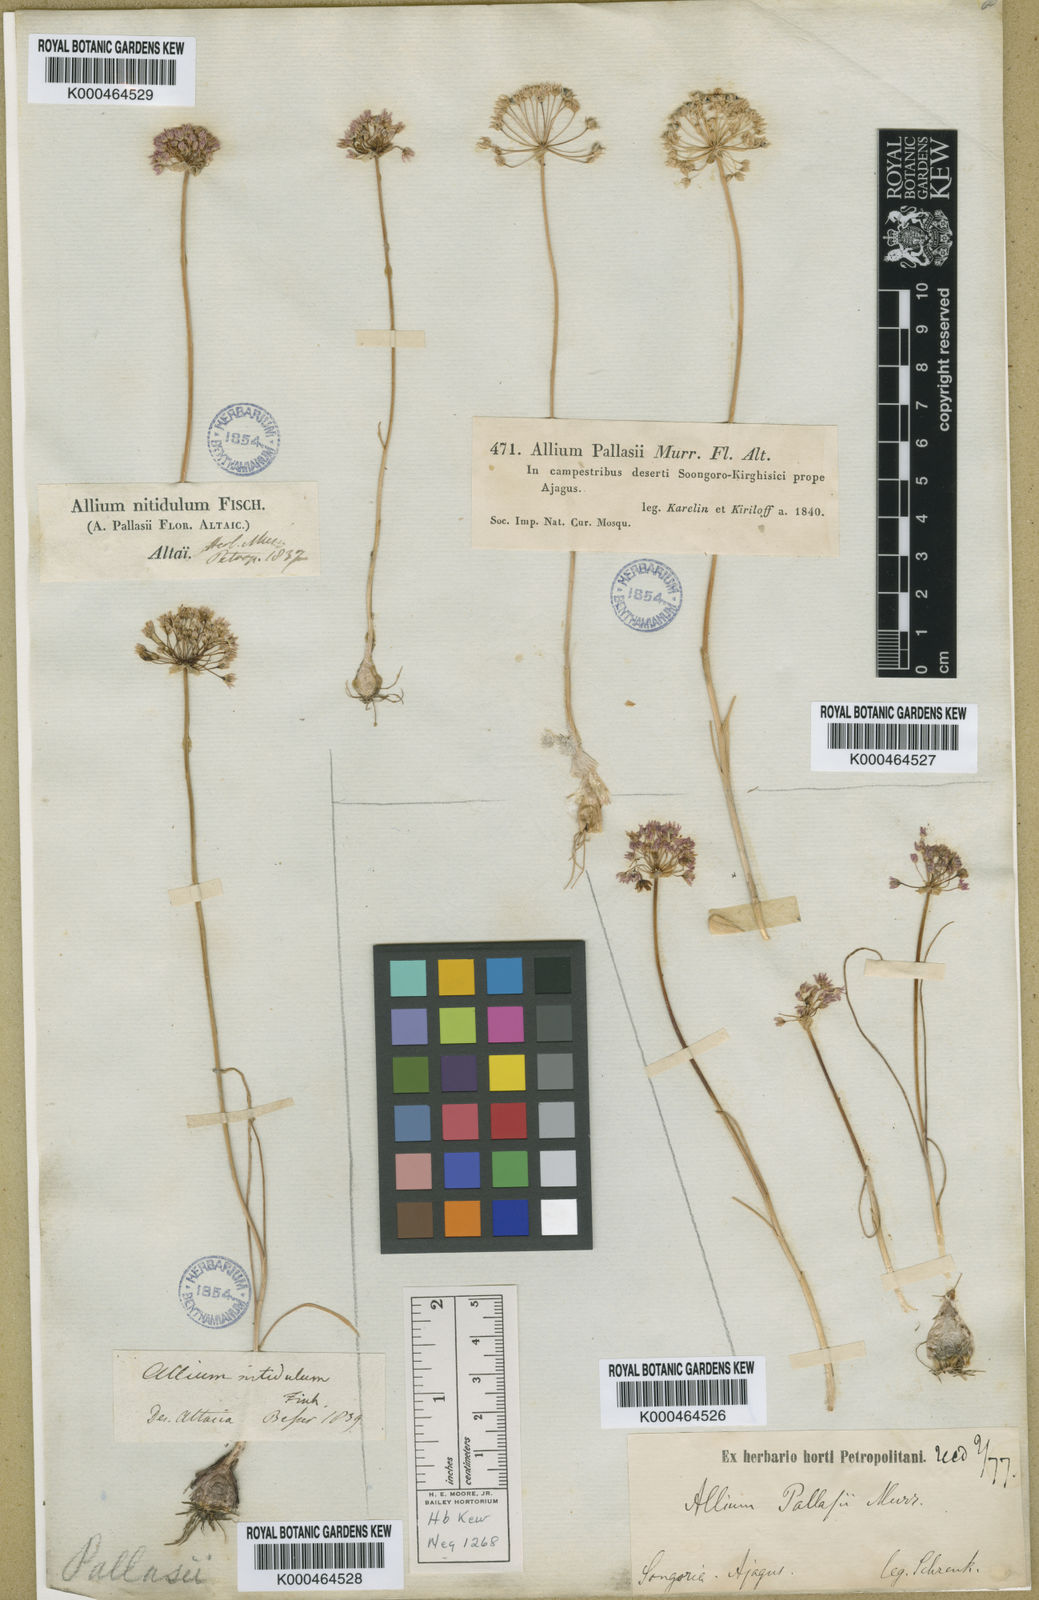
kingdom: Plantae
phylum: Tracheophyta
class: Liliopsida
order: Asparagales
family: Amaryllidaceae
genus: Allium
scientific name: Allium pallasii
